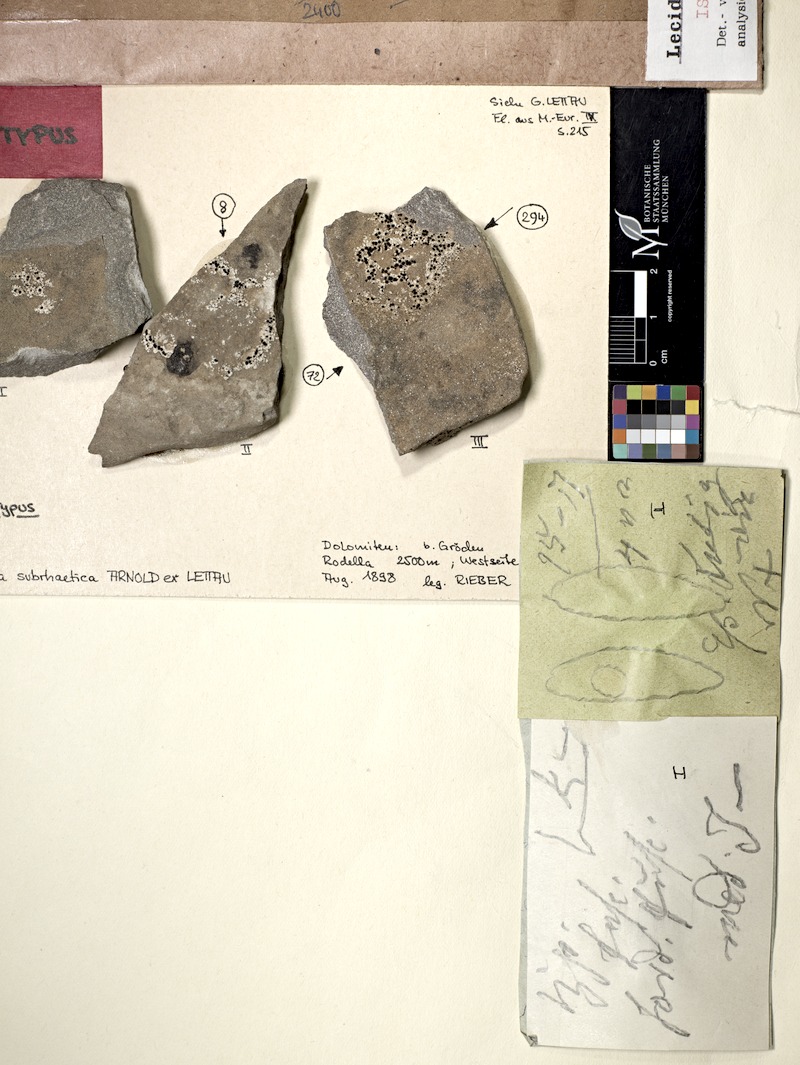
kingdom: Fungi
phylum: Ascomycota
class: Lecanoromycetes
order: Lecideales
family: Lecideaceae
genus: Farnoldia
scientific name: Farnoldia similigena
